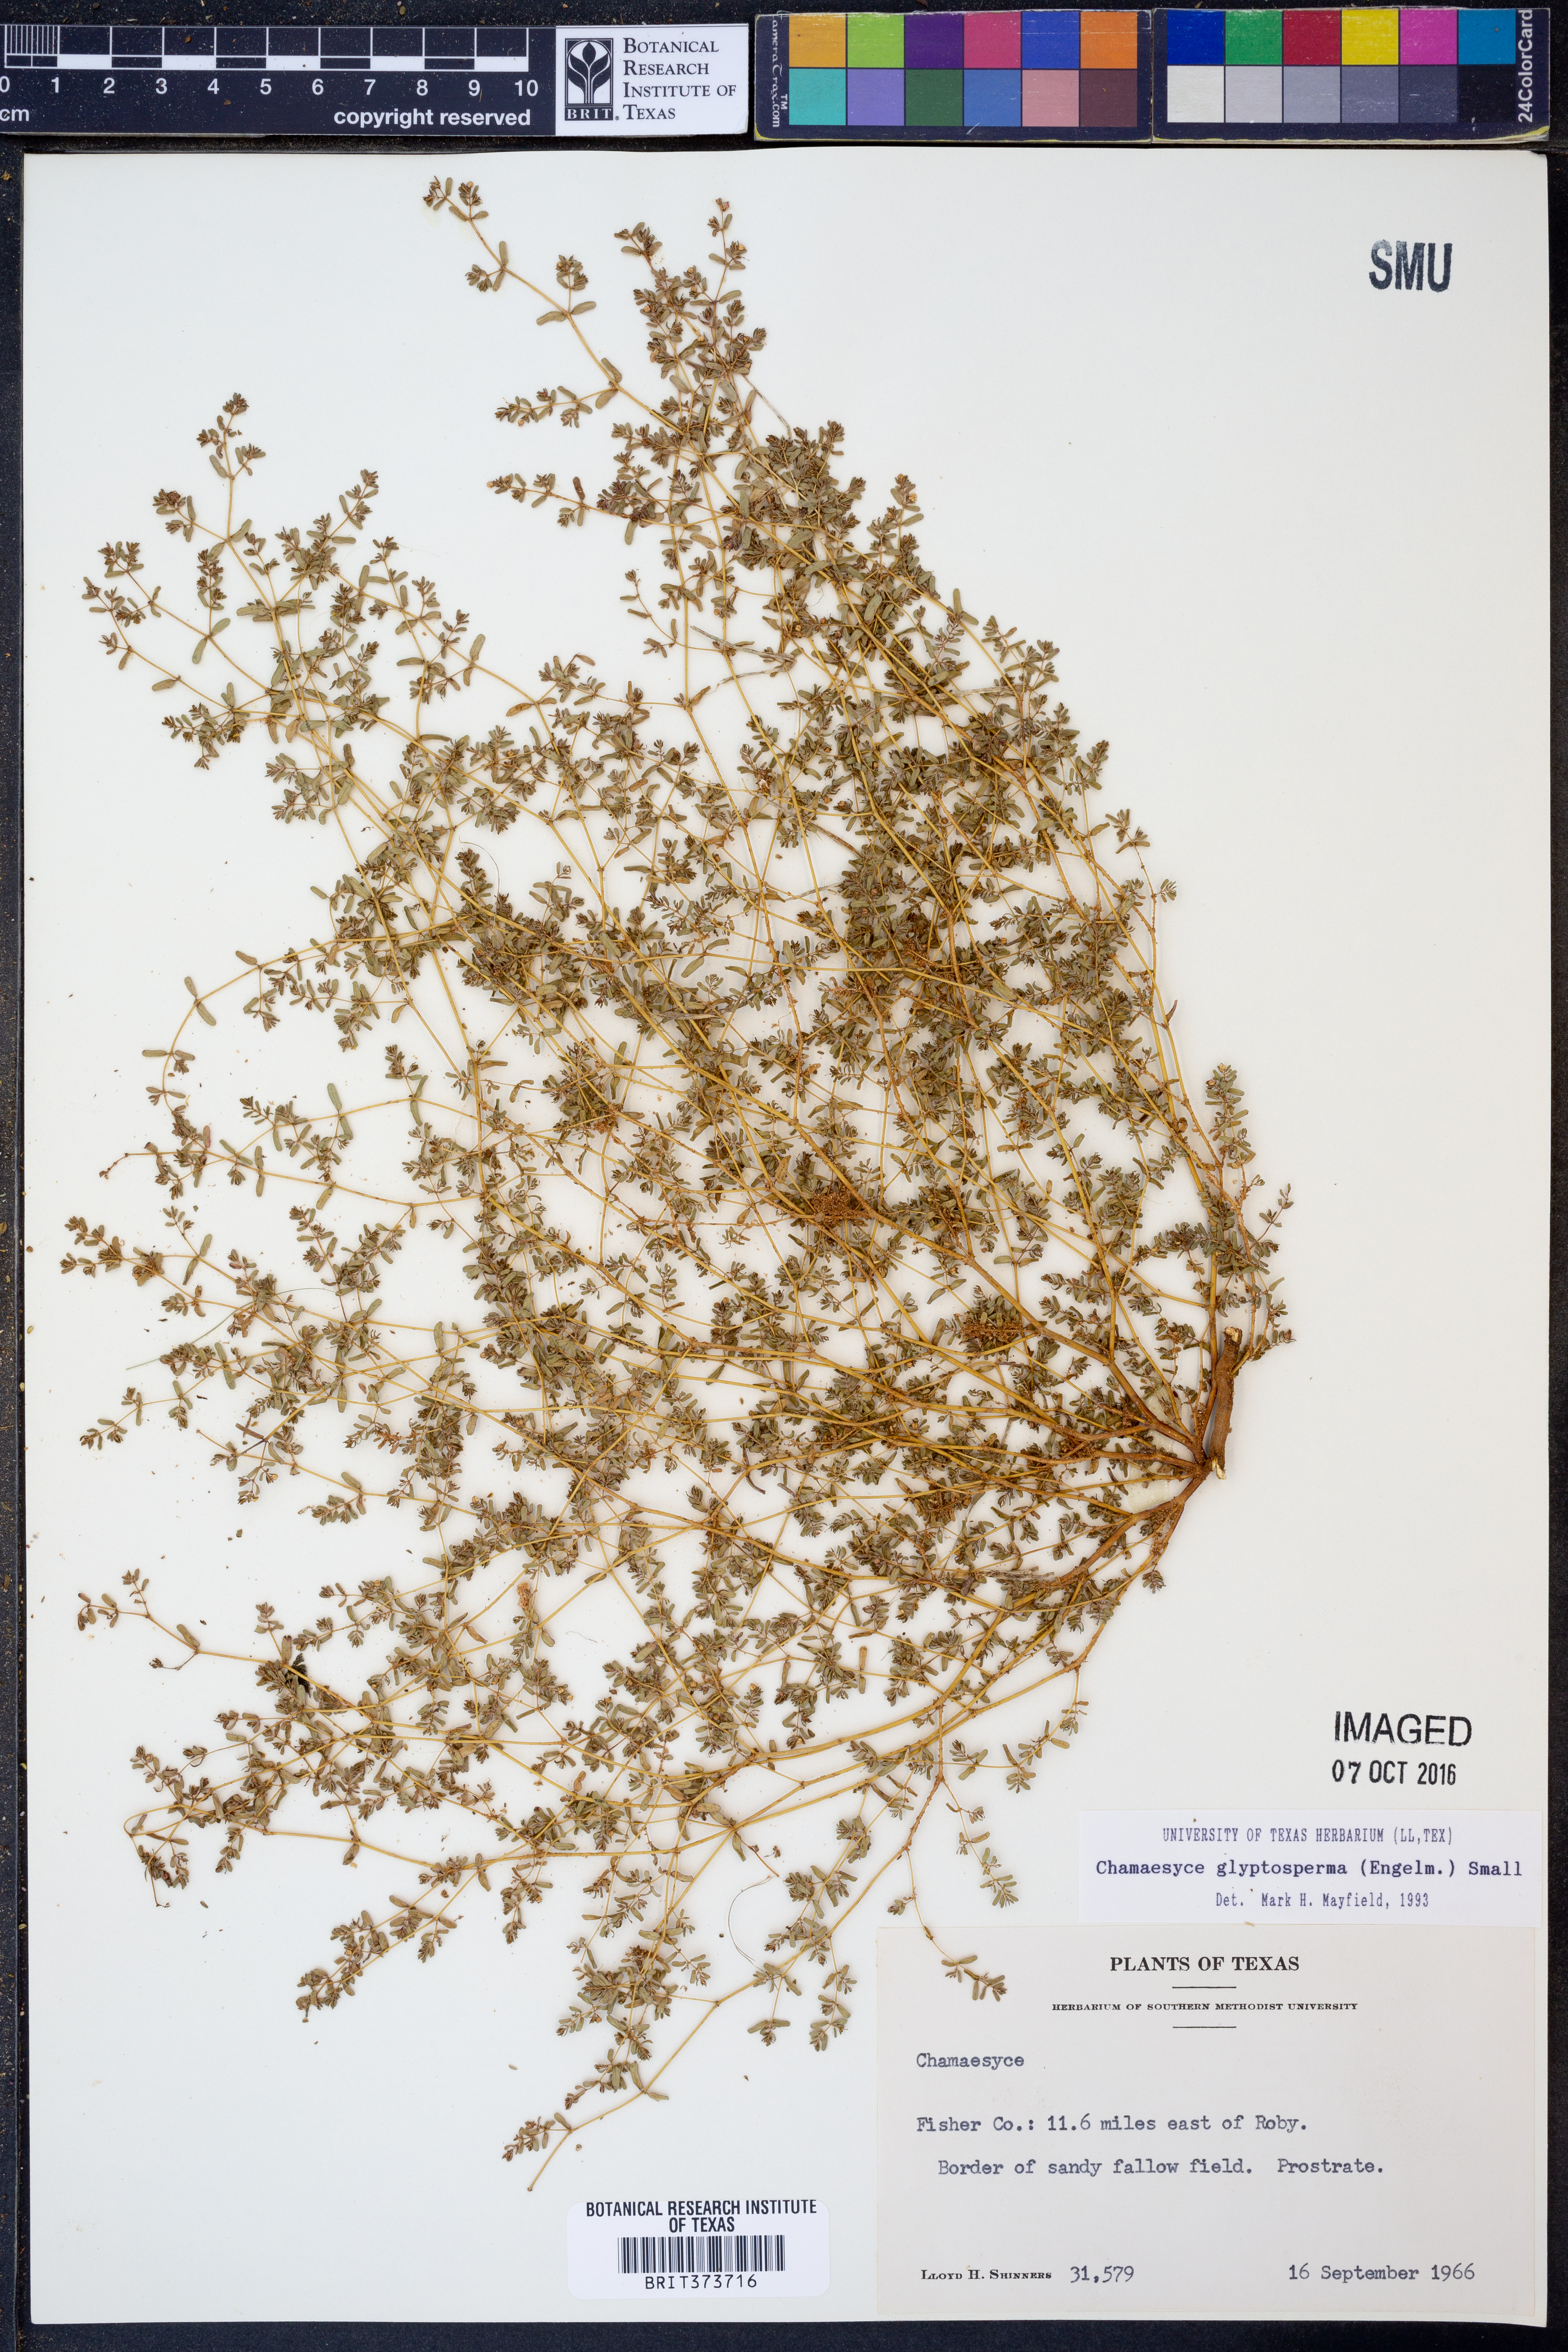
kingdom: Plantae
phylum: Tracheophyta
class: Magnoliopsida
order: Malpighiales
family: Euphorbiaceae
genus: Euphorbia
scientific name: Euphorbia glyptosperma
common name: Corrugate-seeded spurge
